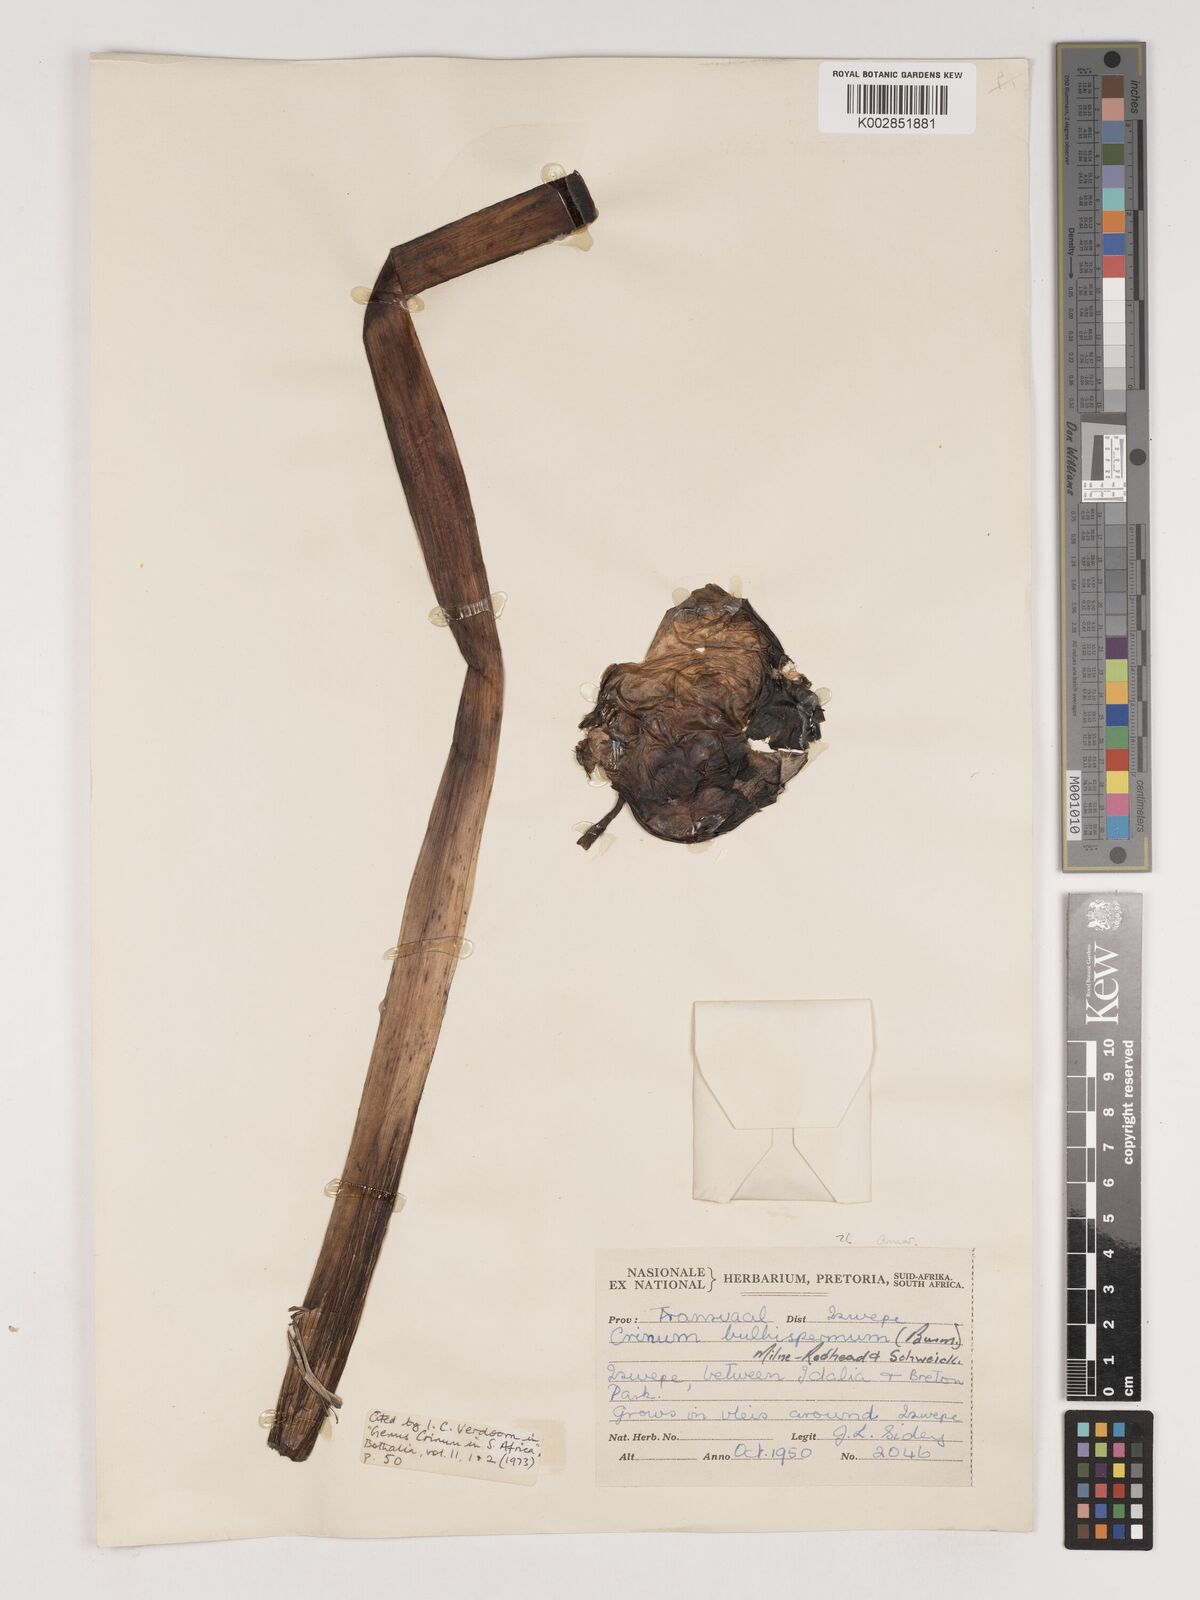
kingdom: Plantae
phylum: Tracheophyta
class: Liliopsida
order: Asparagales
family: Amaryllidaceae
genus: Crinum
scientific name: Crinum bulbispermum
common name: Hardy swamplily
